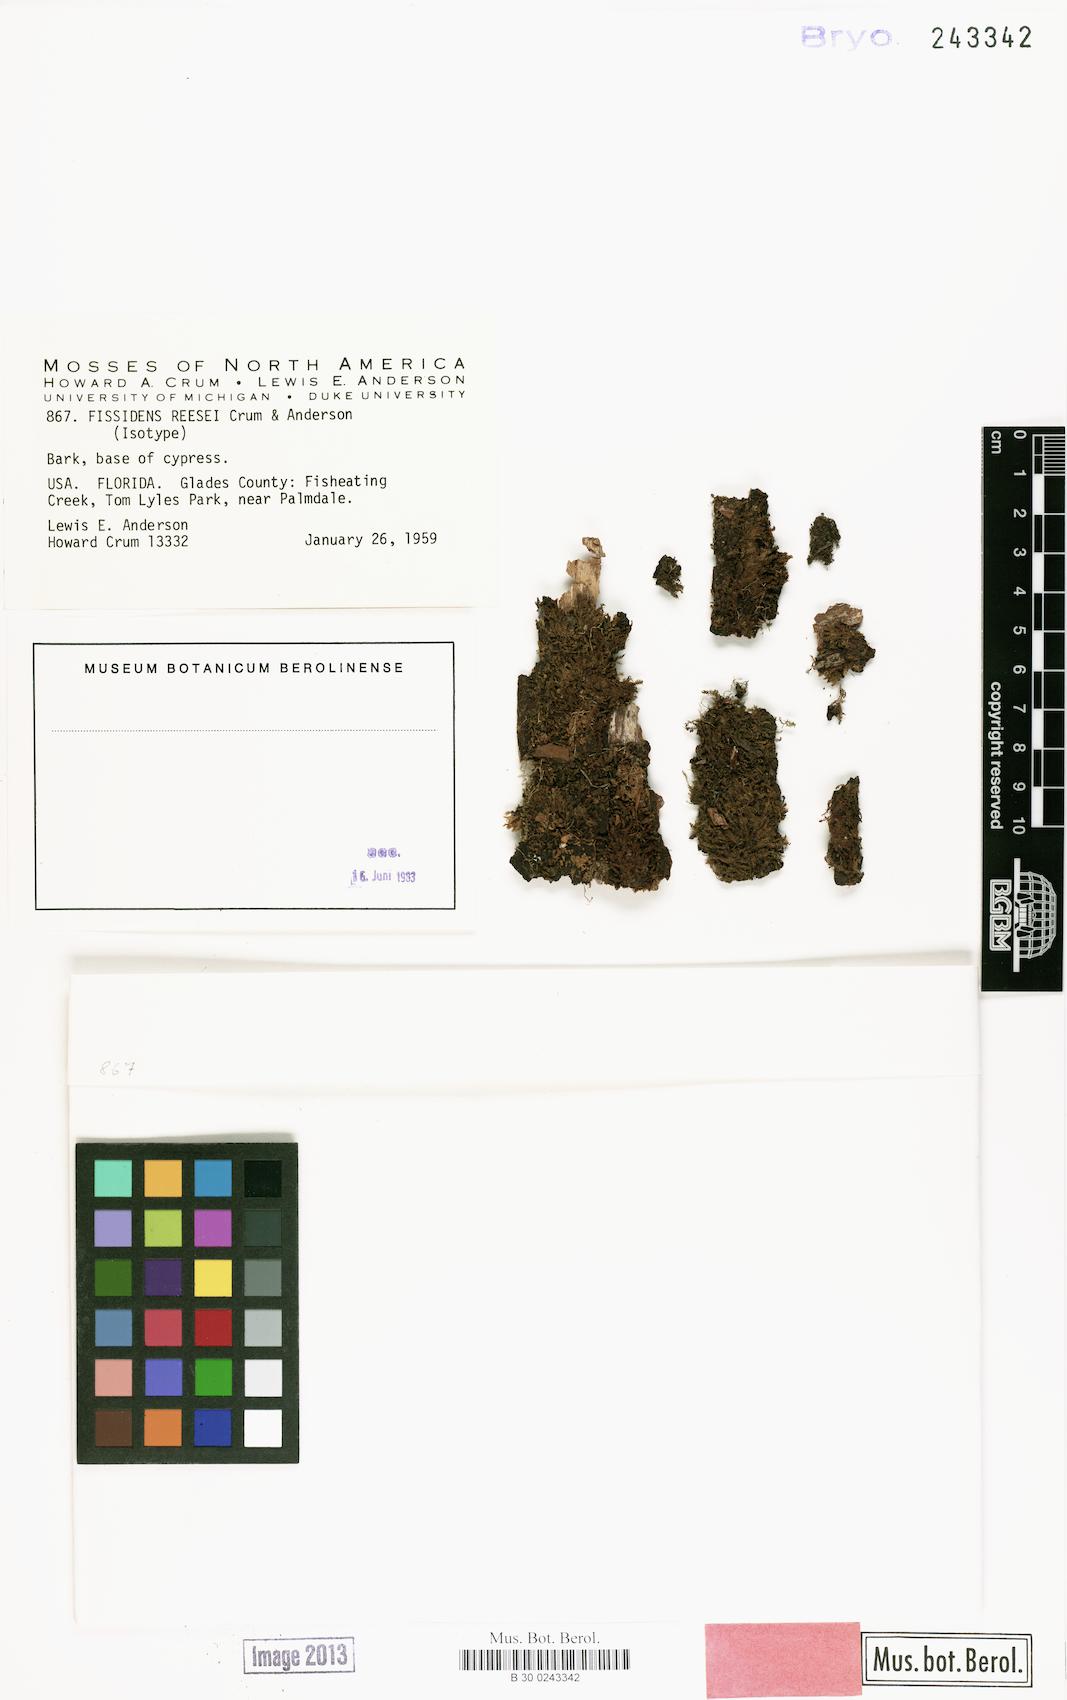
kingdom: Plantae
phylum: Bryophyta
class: Bryopsida
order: Dicranales
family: Fissidentaceae
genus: Fissidens
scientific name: Fissidens leptophyllus
